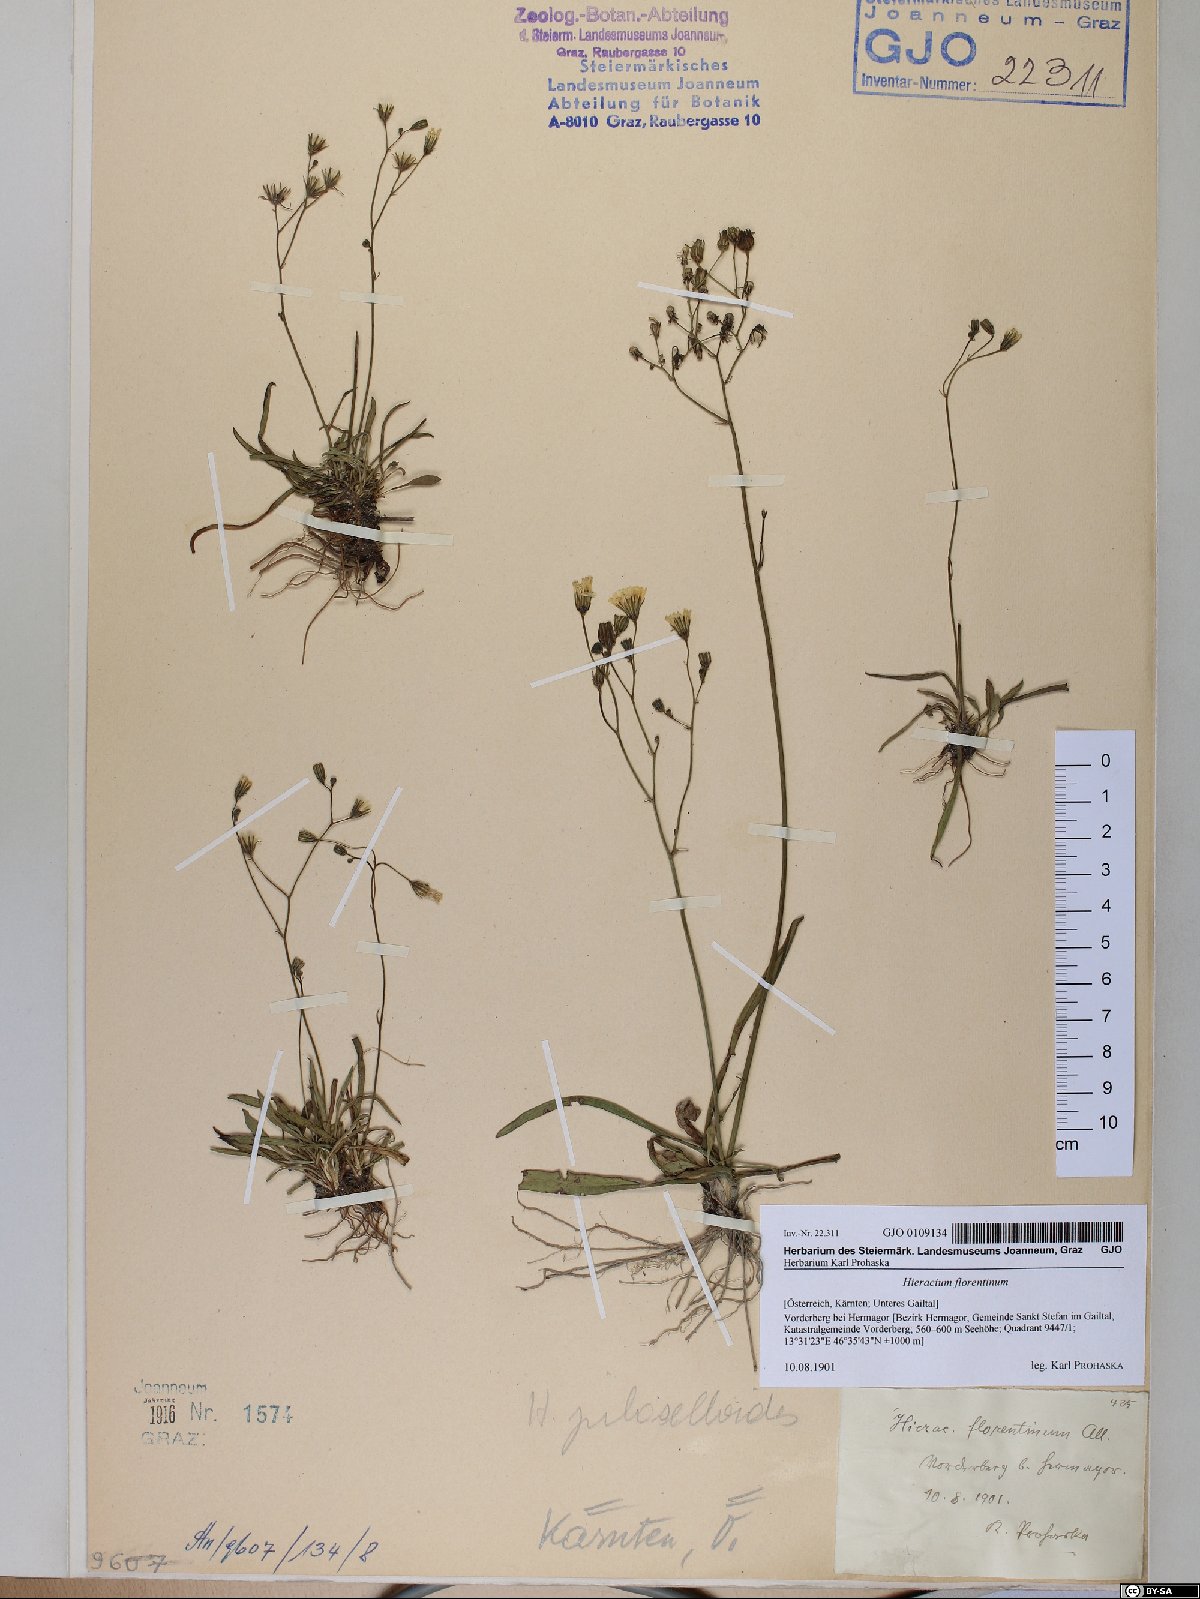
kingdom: Plantae
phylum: Tracheophyta
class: Magnoliopsida
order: Asterales
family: Asteraceae
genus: Pilosella
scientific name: Pilosella piloselloides
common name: Glaucous king-devil
